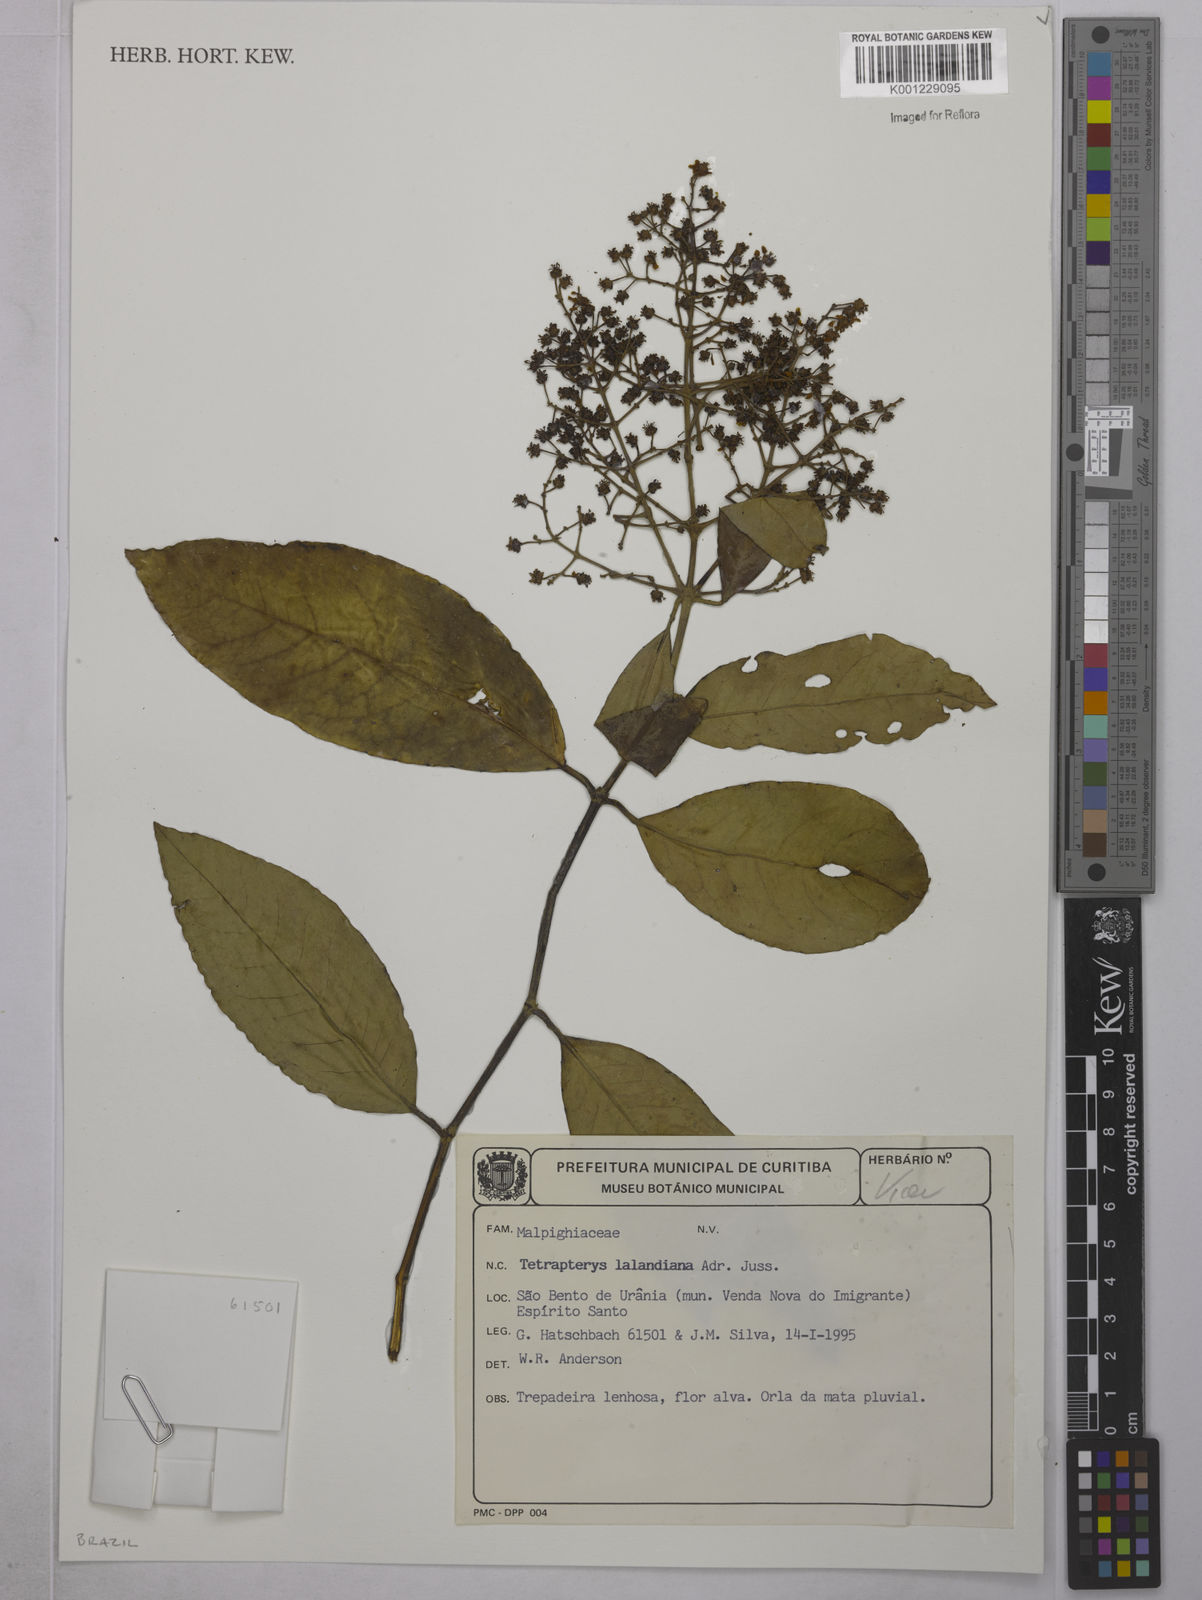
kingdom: Plantae
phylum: Tracheophyta
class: Magnoliopsida
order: Malpighiales
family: Malpighiaceae
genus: Niedenzuella
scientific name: Niedenzuella poeppigiana
